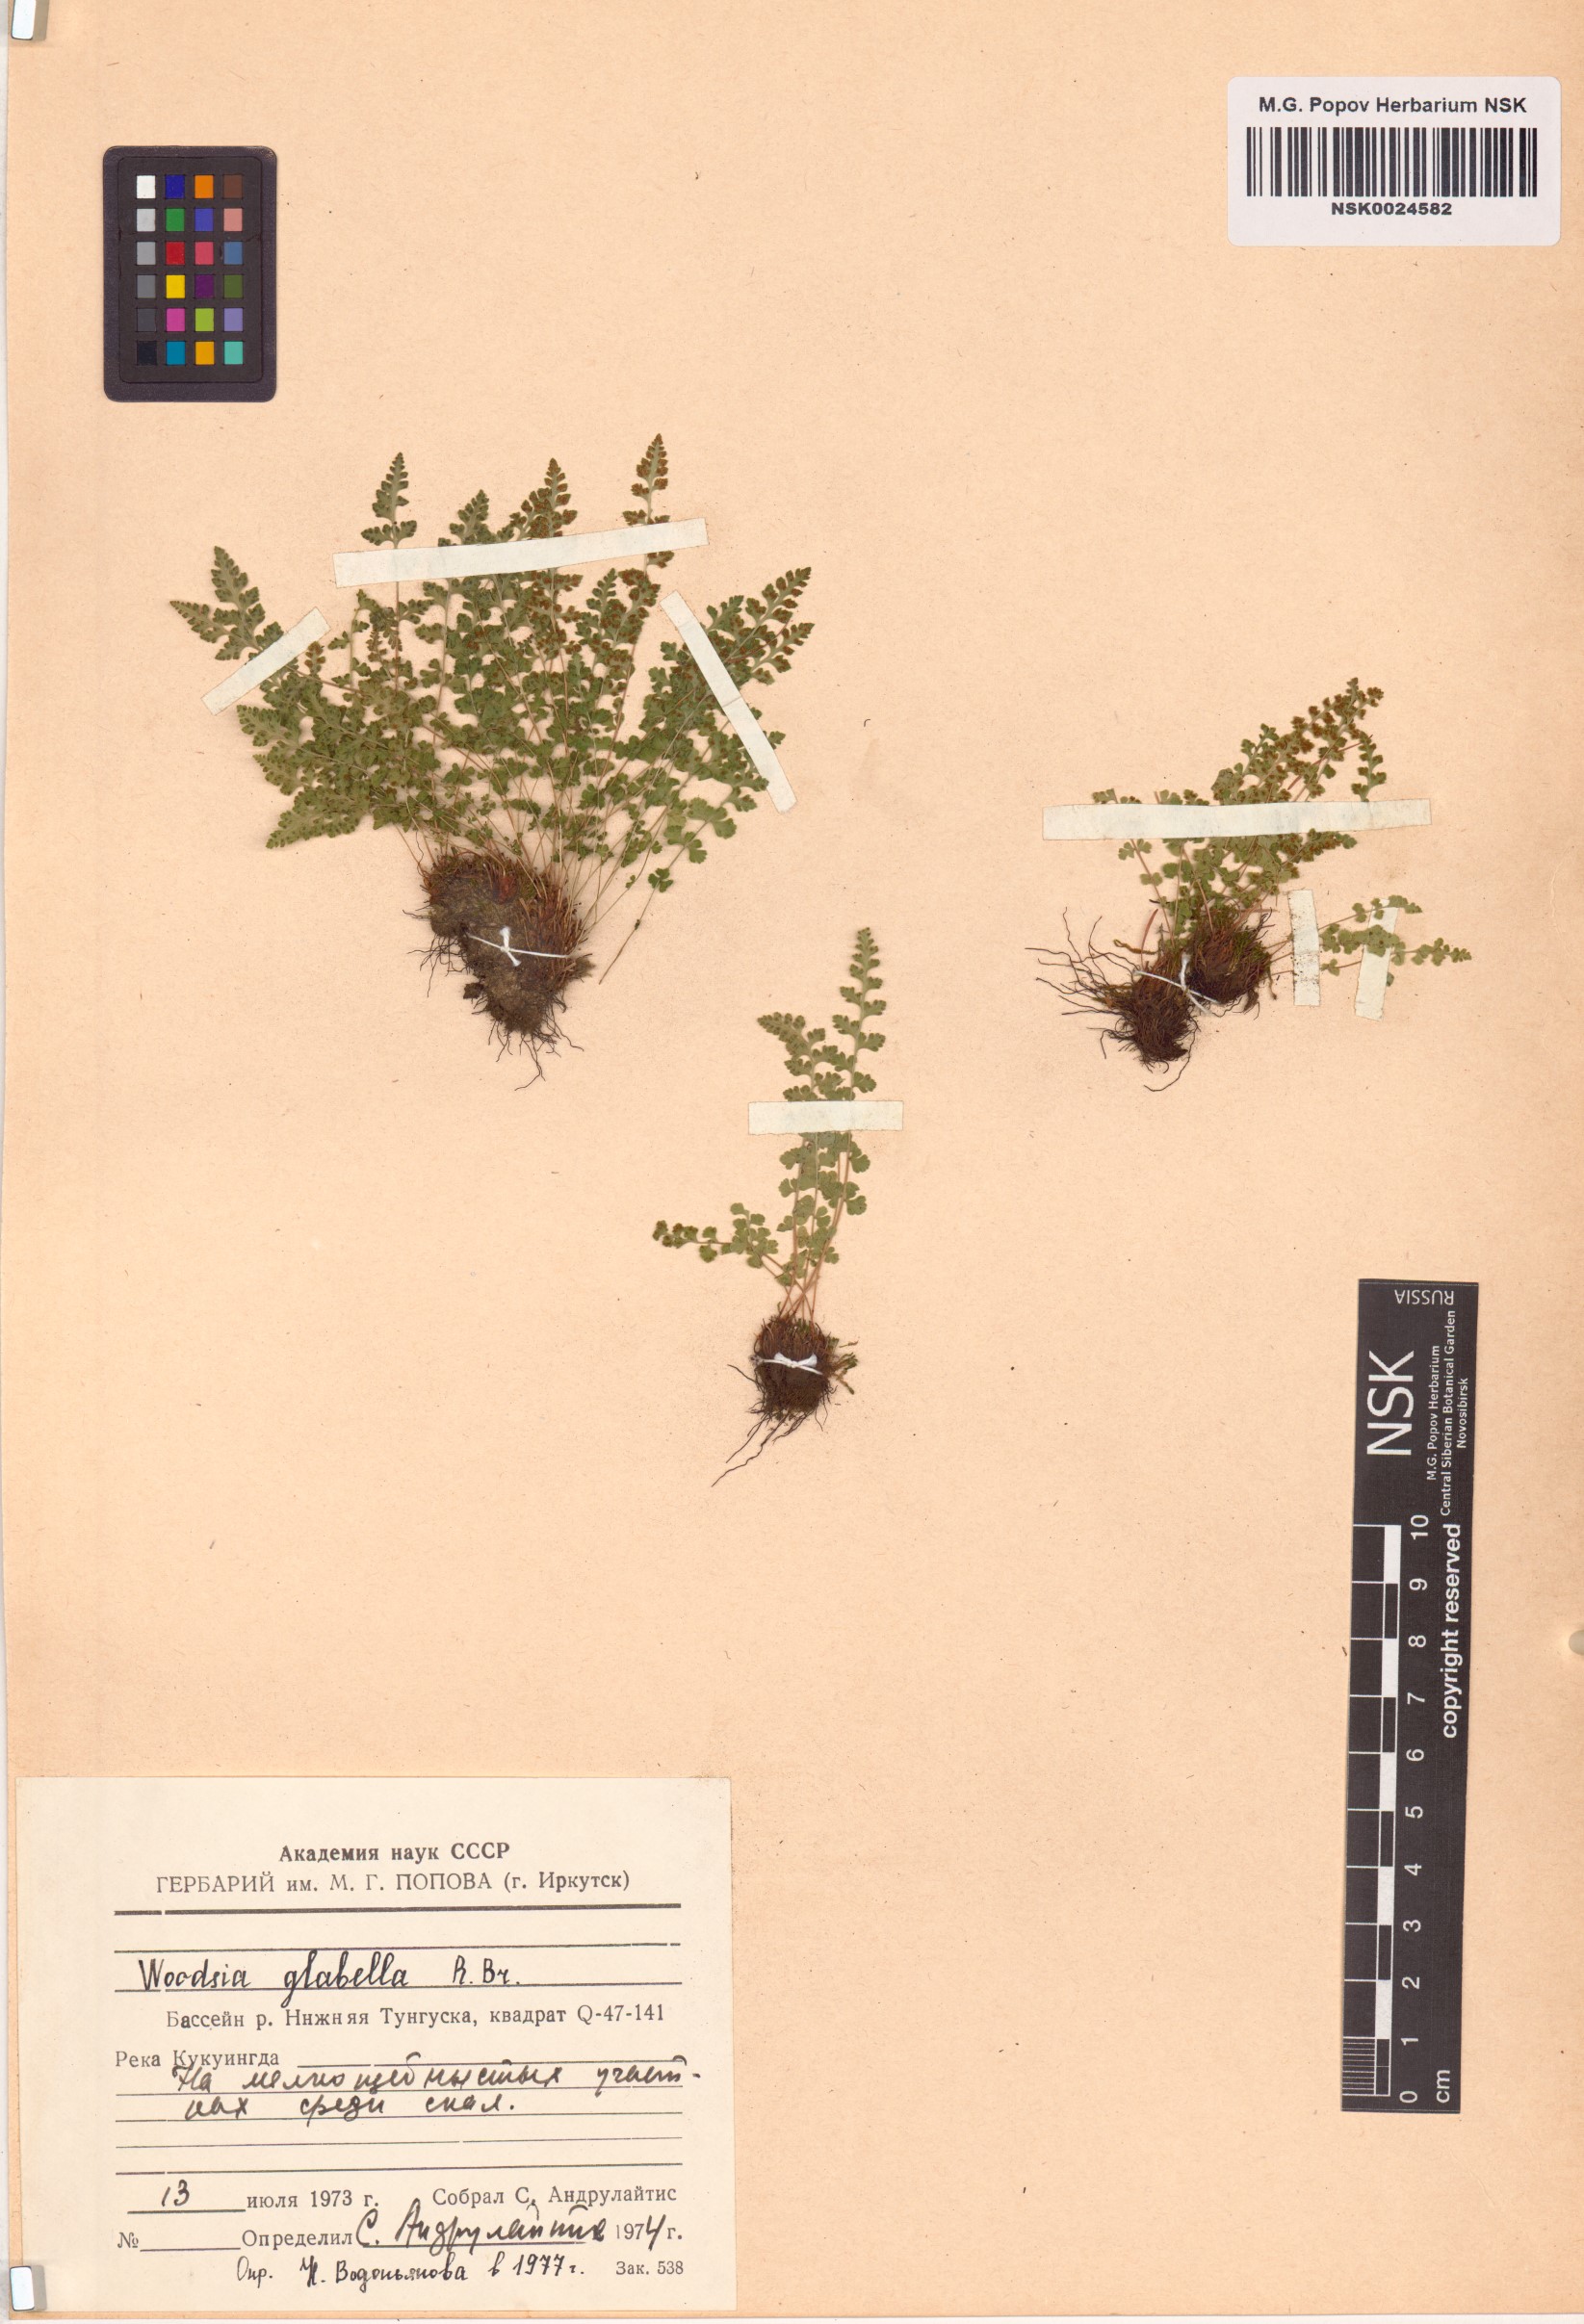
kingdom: Plantae
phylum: Tracheophyta
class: Polypodiopsida
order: Polypodiales
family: Woodsiaceae
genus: Woodsia
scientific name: Woodsia glabella
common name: Smooth woodsia
